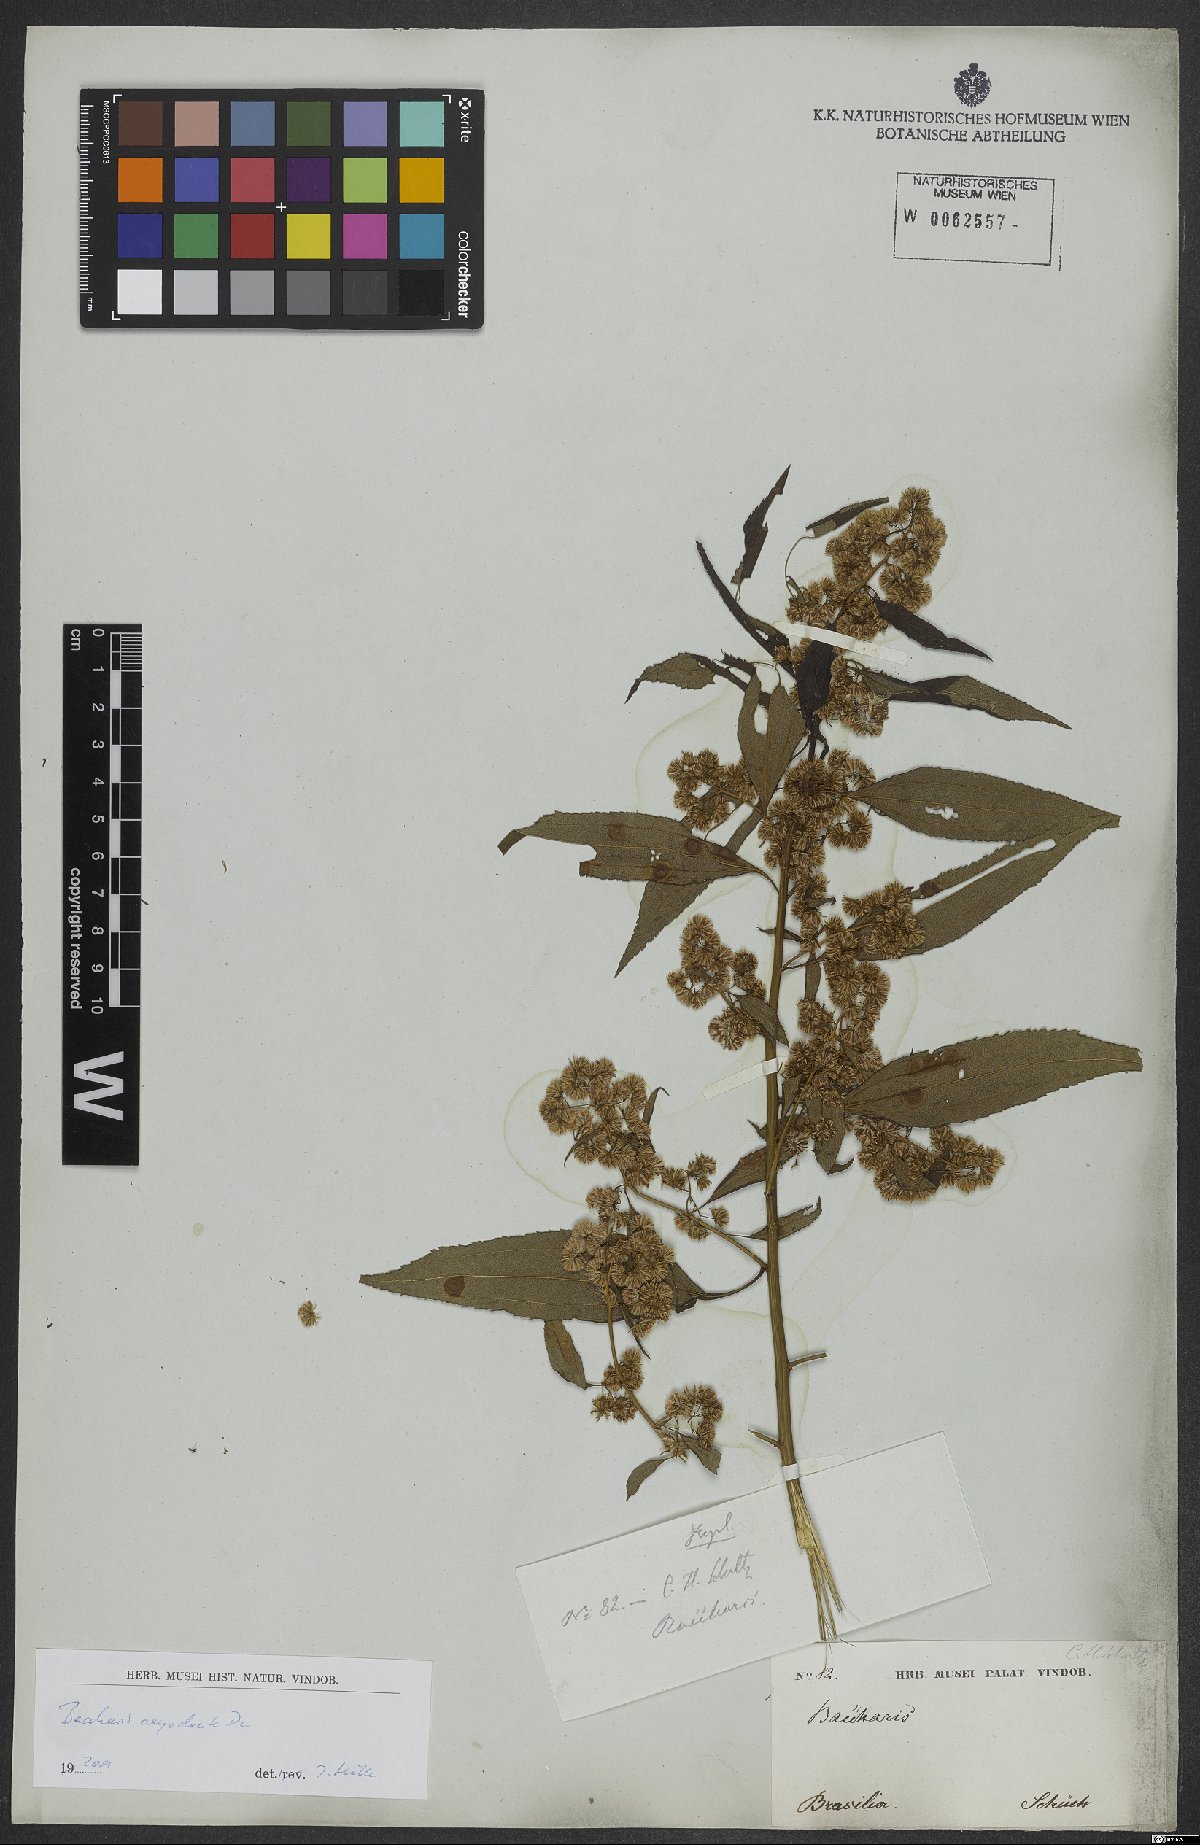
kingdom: Plantae
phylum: Tracheophyta
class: Magnoliopsida
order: Asterales
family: Asteraceae
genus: Baccharis
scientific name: Baccharis oxyodonta
